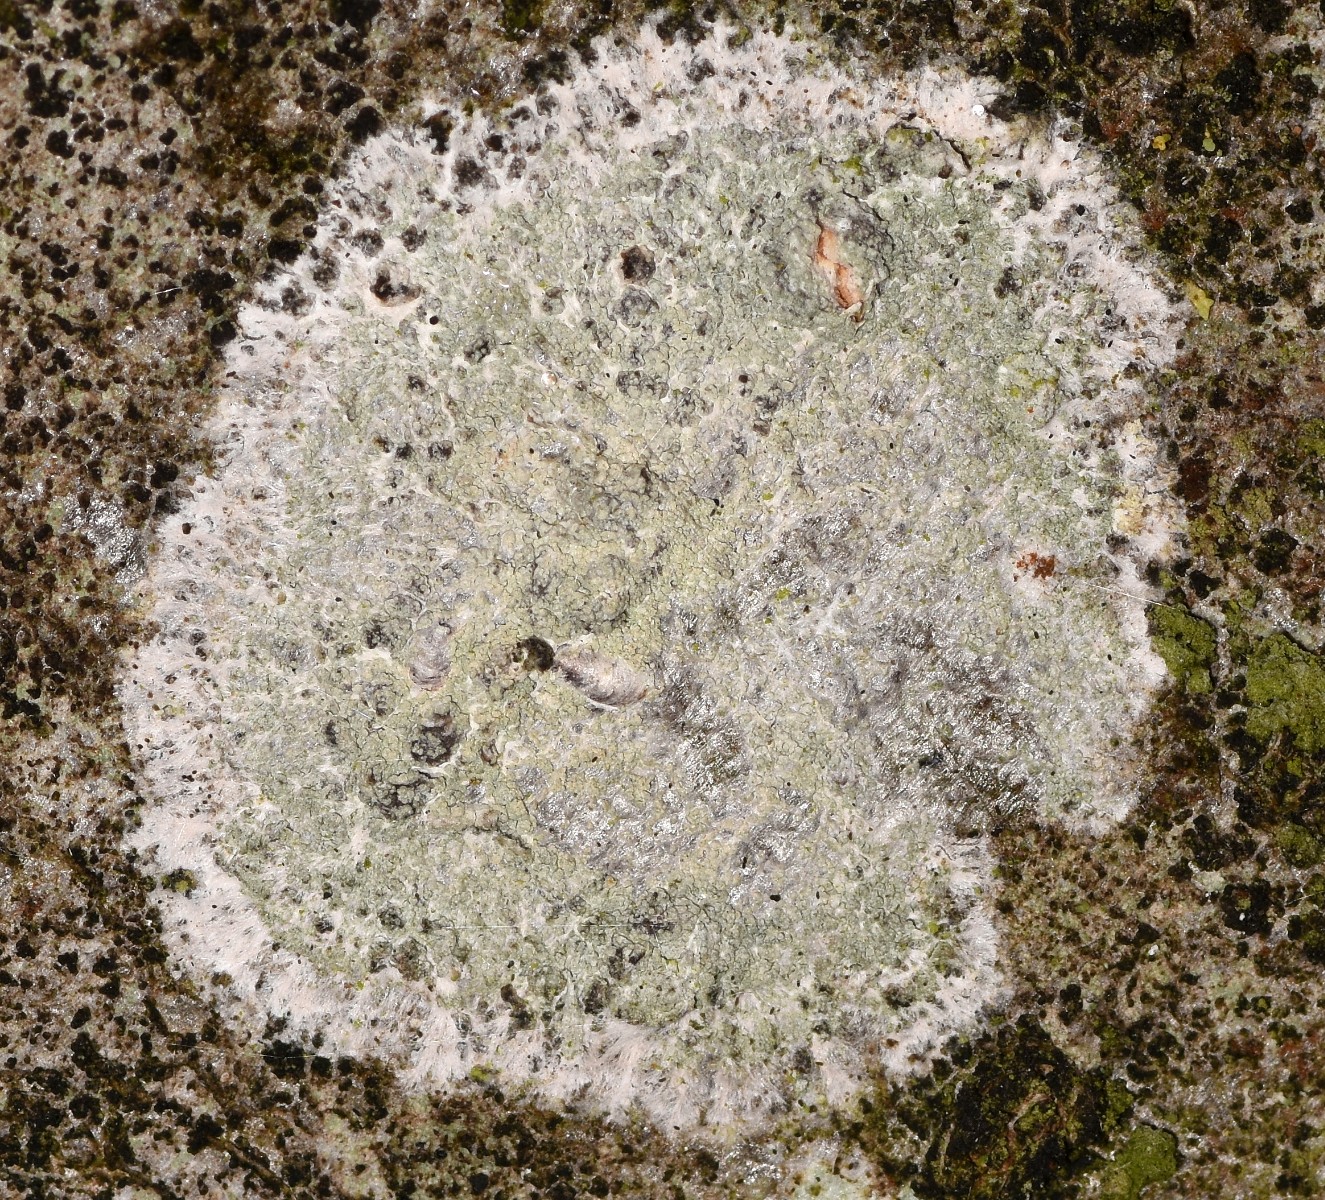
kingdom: Fungi
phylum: Ascomycota
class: Lecanoromycetes
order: Ostropales
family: Phlyctidaceae
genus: Phlyctis
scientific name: Phlyctis argena
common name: almindelig sølvlav
